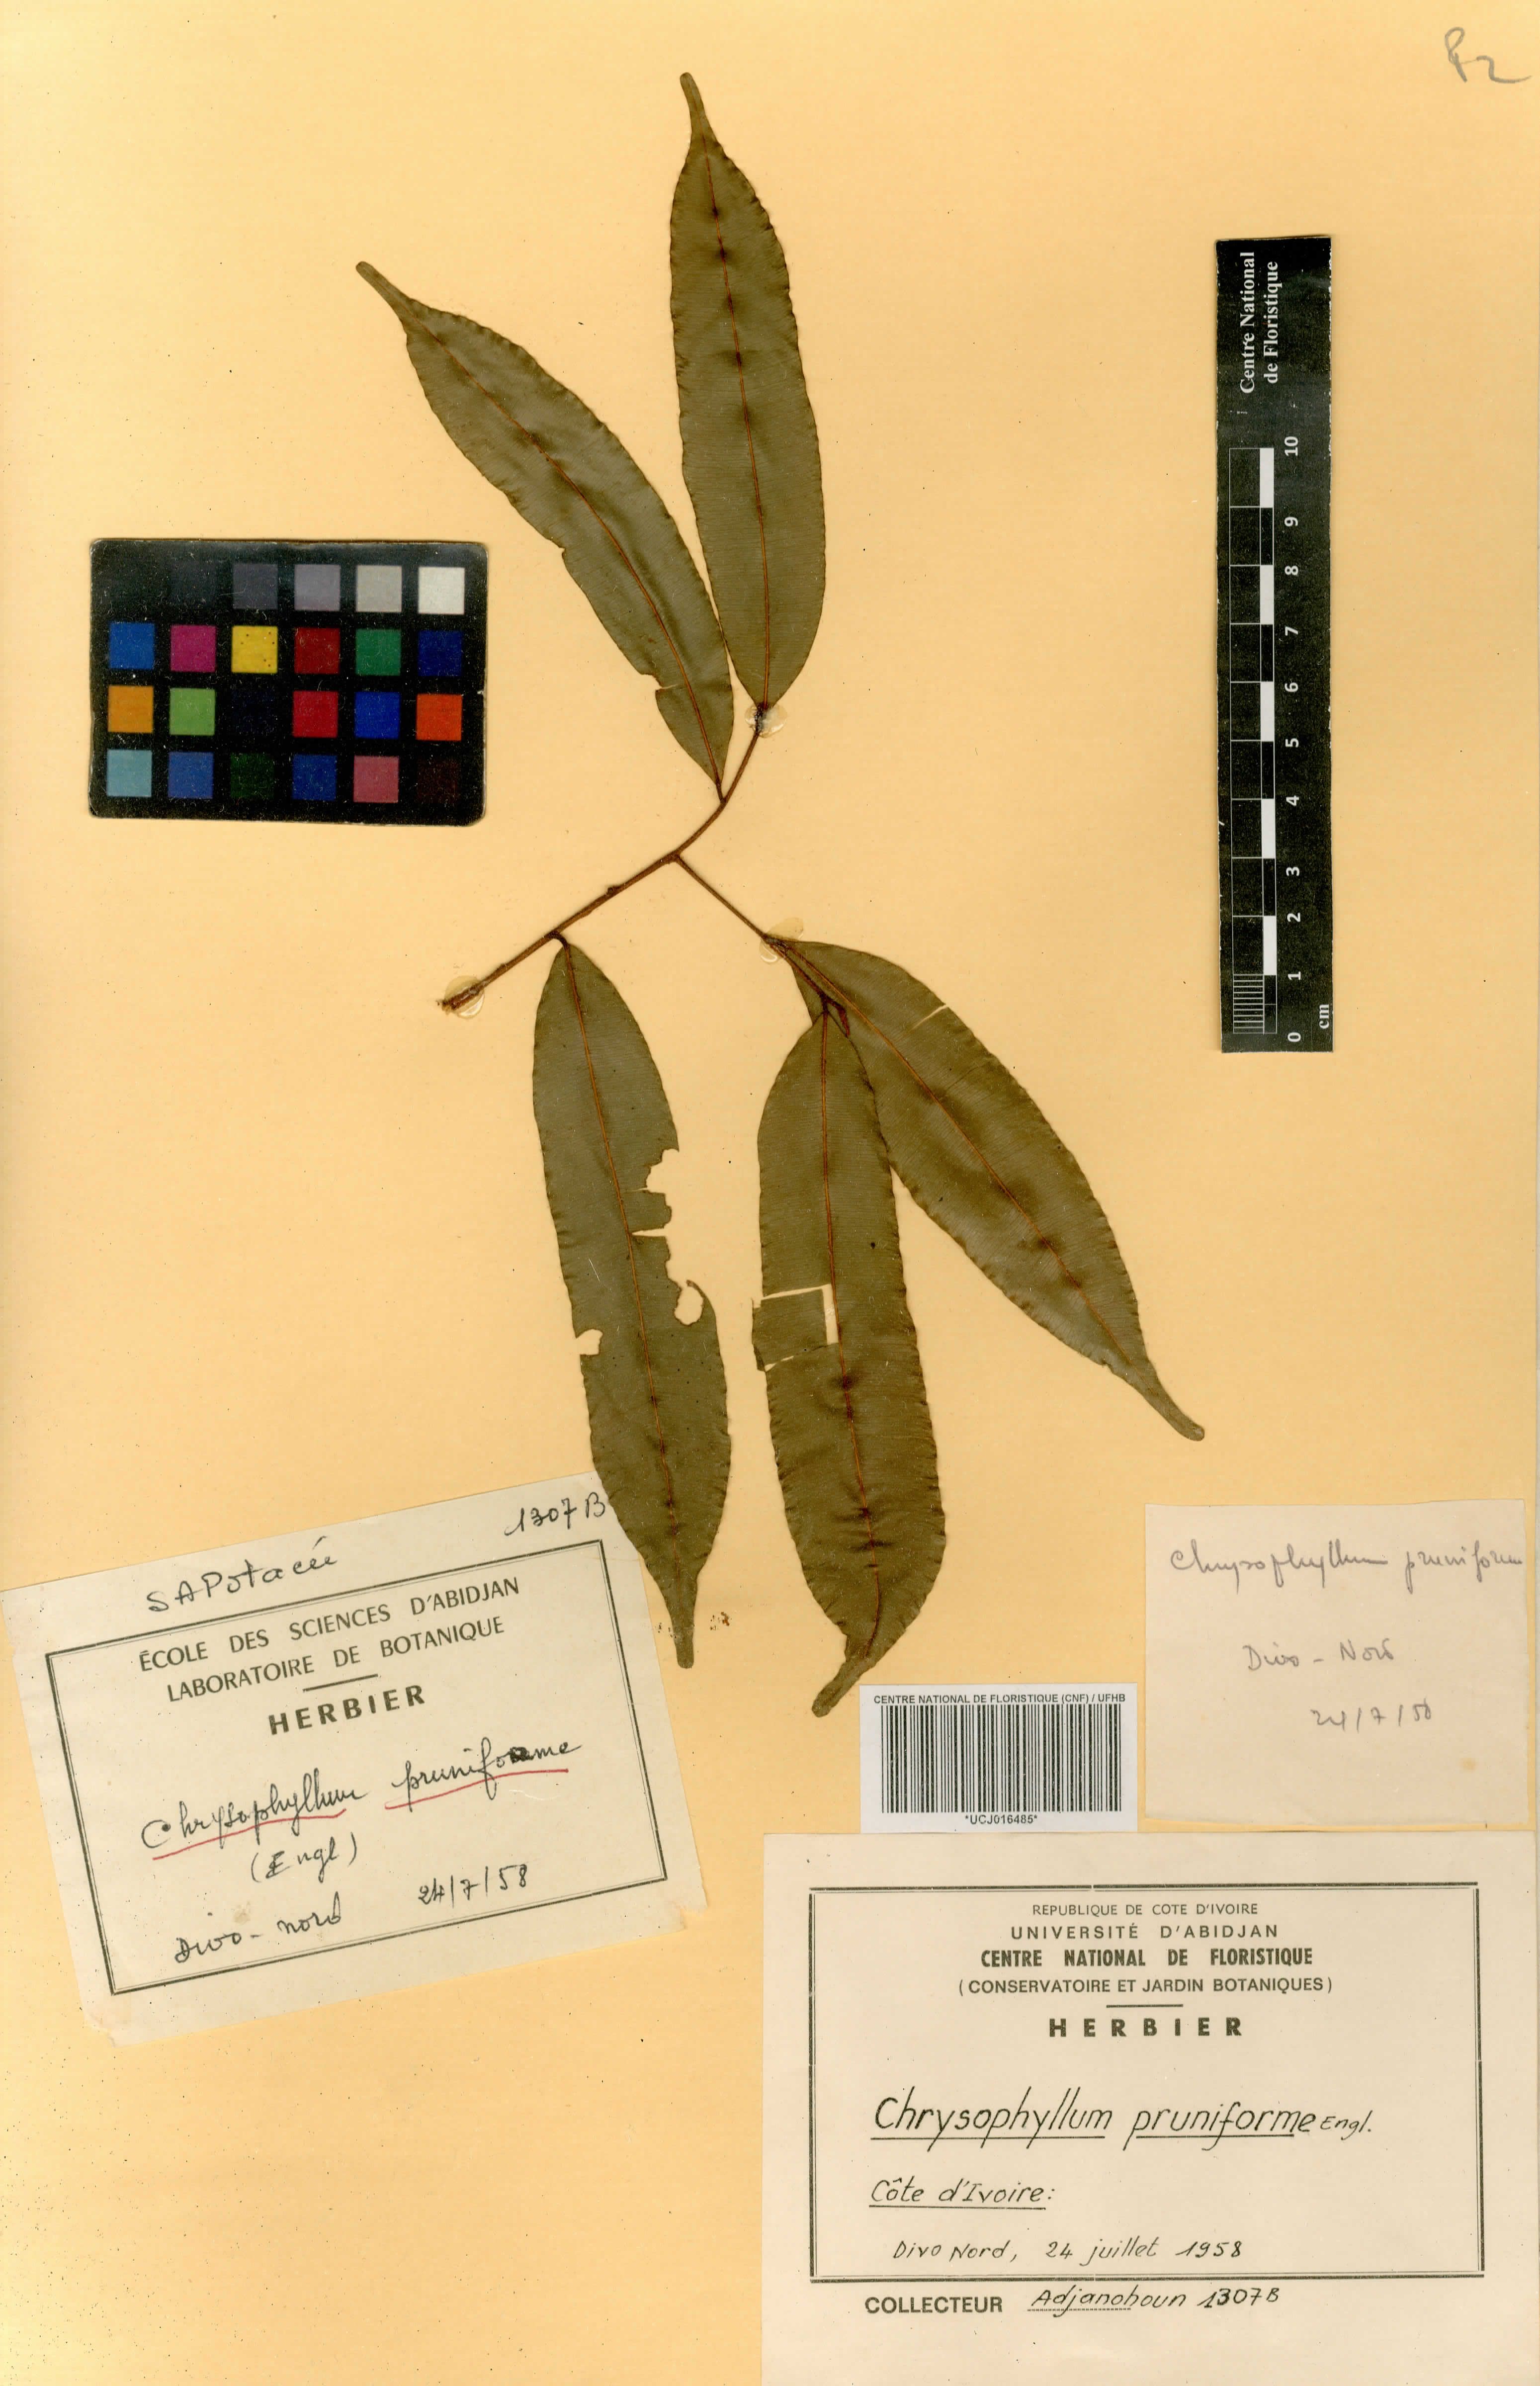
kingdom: Plantae
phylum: Tracheophyta
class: Magnoliopsida
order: Ericales
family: Sapotaceae
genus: Donella
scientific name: Donella pruniformis
